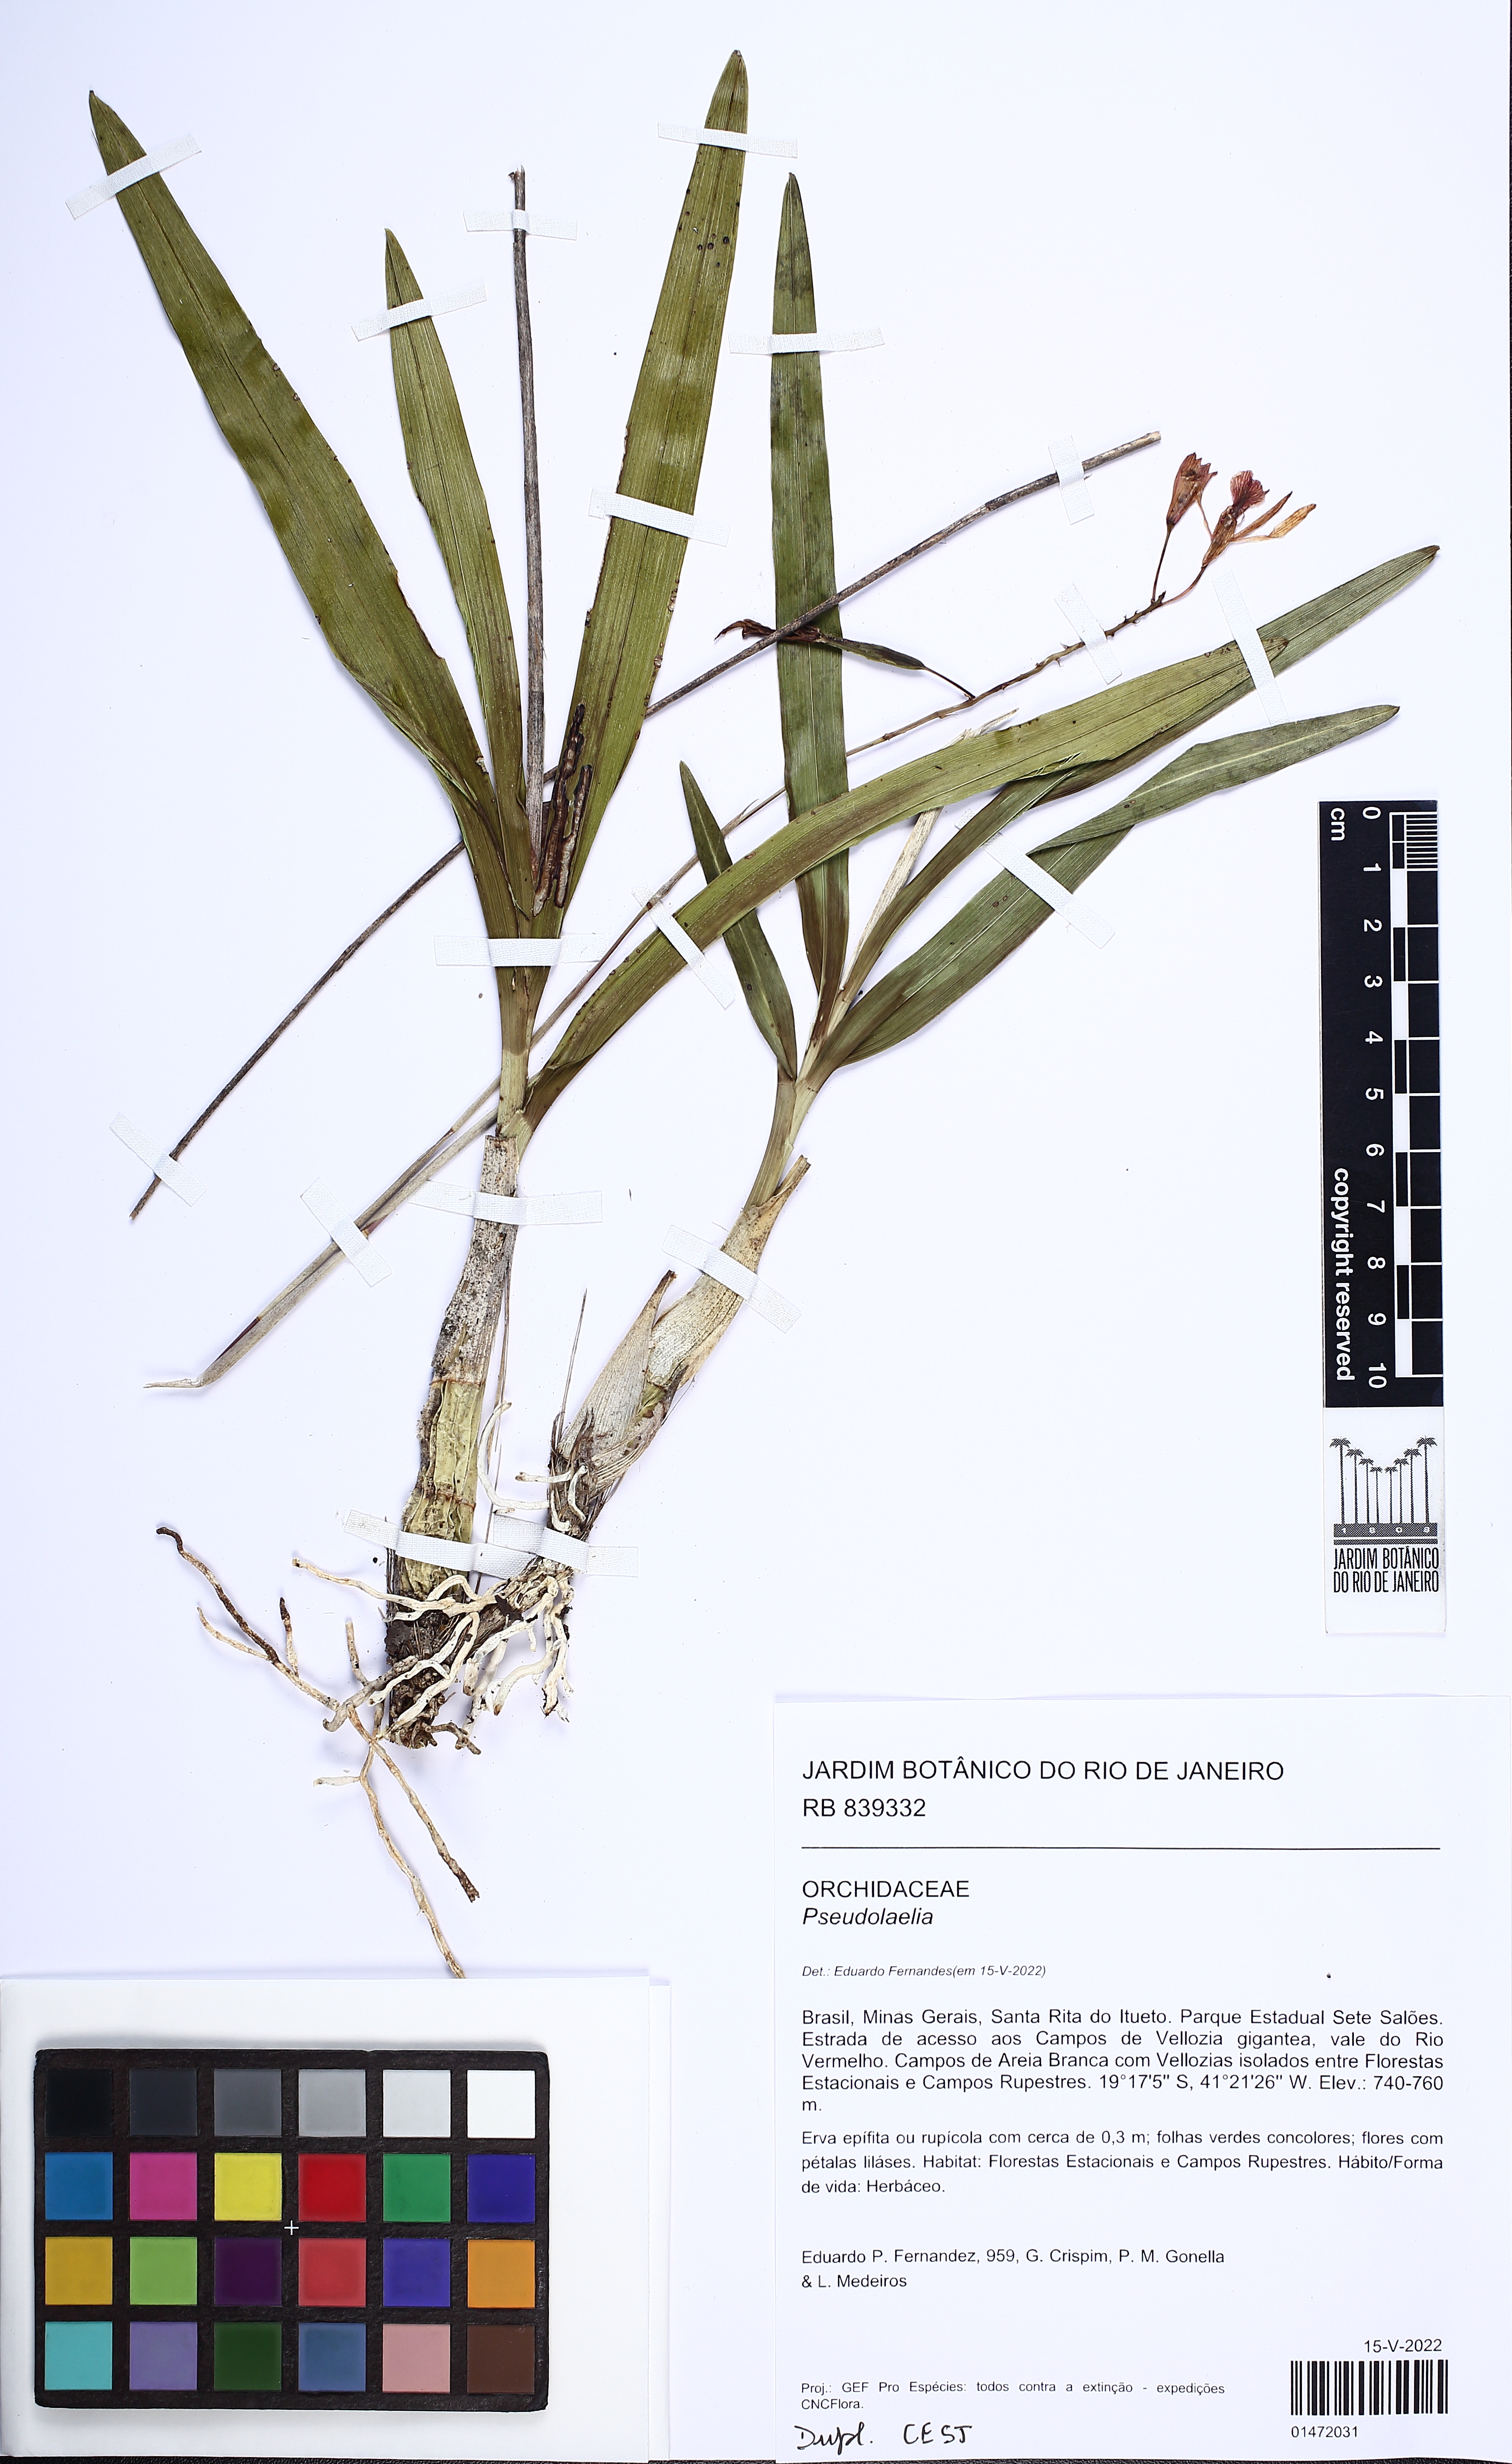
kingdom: Plantae
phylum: Tracheophyta
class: Liliopsida
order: Asparagales
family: Orchidaceae
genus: Pseudolaelia
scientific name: Pseudolaelia
